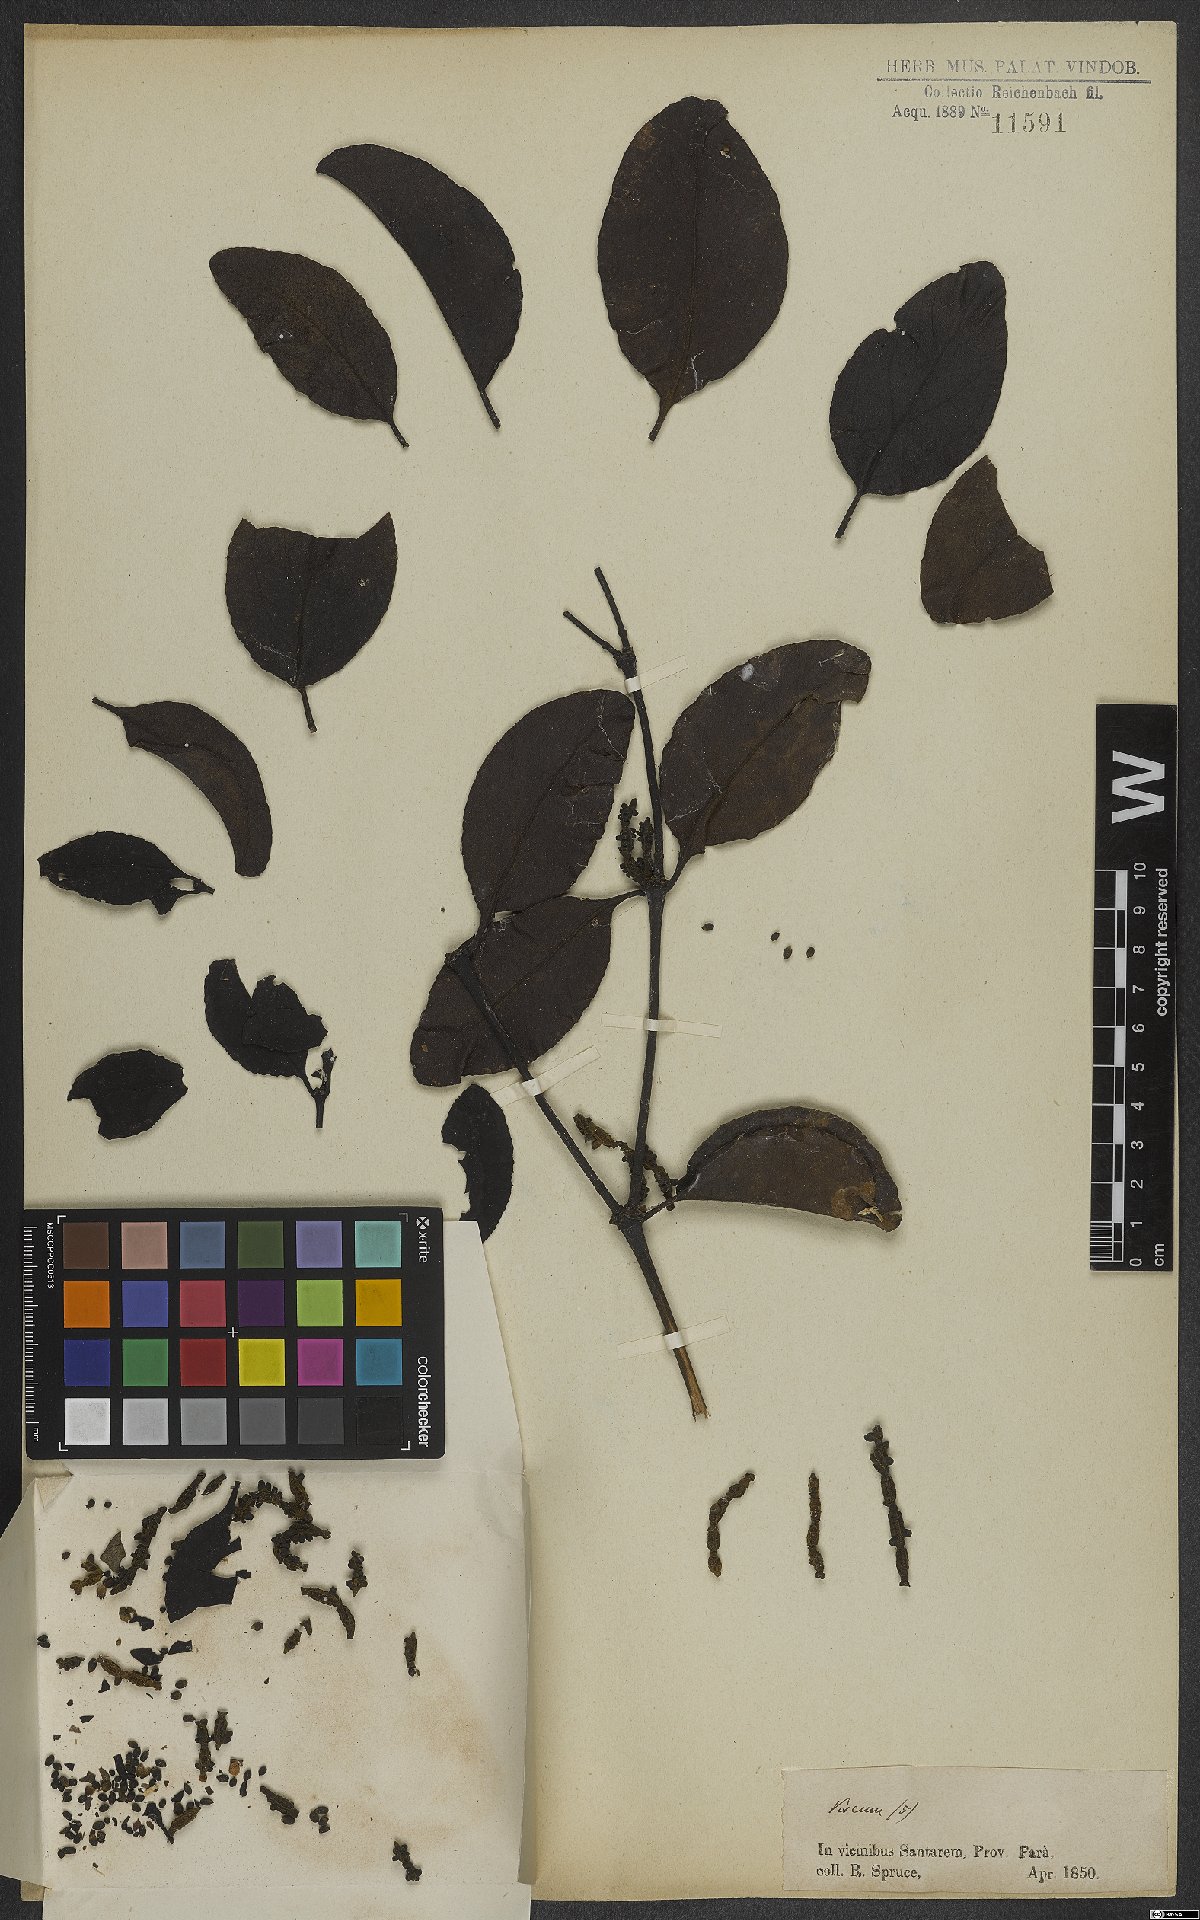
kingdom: Plantae
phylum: Tracheophyta
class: Magnoliopsida
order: Santalales
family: Viscaceae
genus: Viscum
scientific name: Viscum
